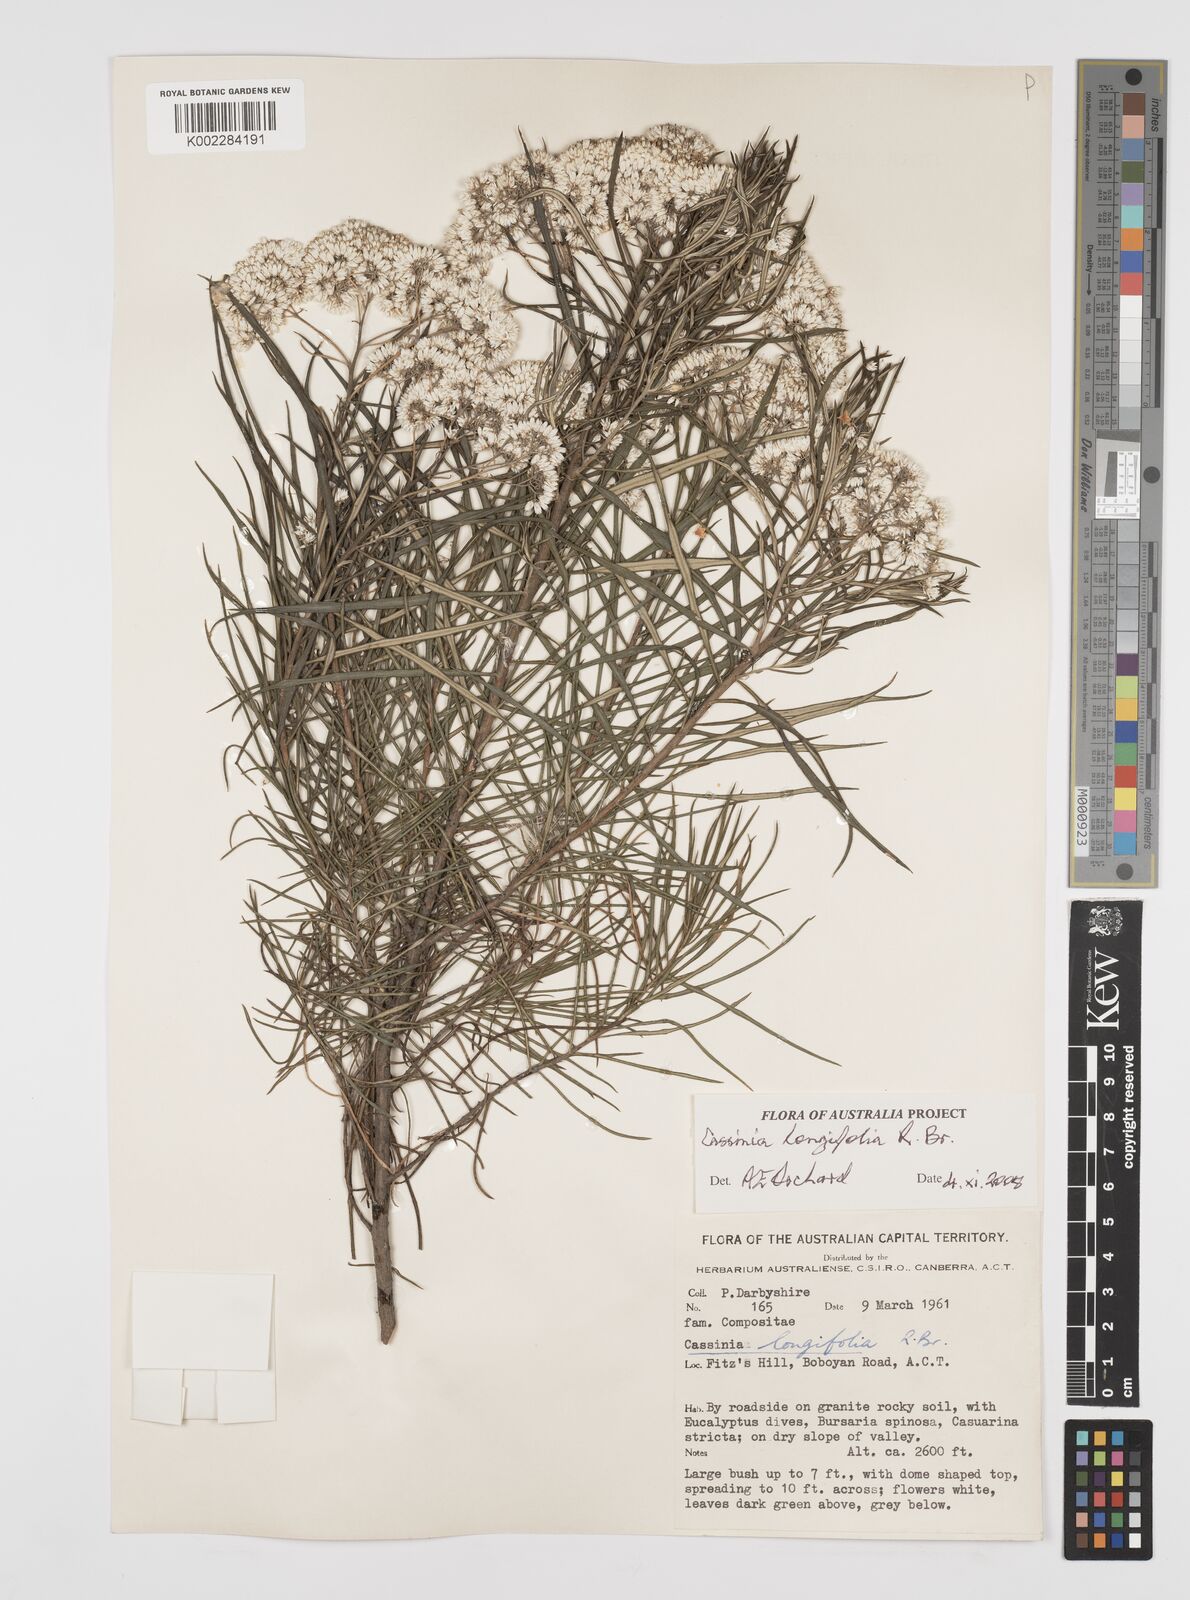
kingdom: Plantae
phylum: Tracheophyta
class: Magnoliopsida
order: Asterales
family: Asteraceae
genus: Cassinia
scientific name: Cassinia longifolia
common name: Longleaf-dogwood
